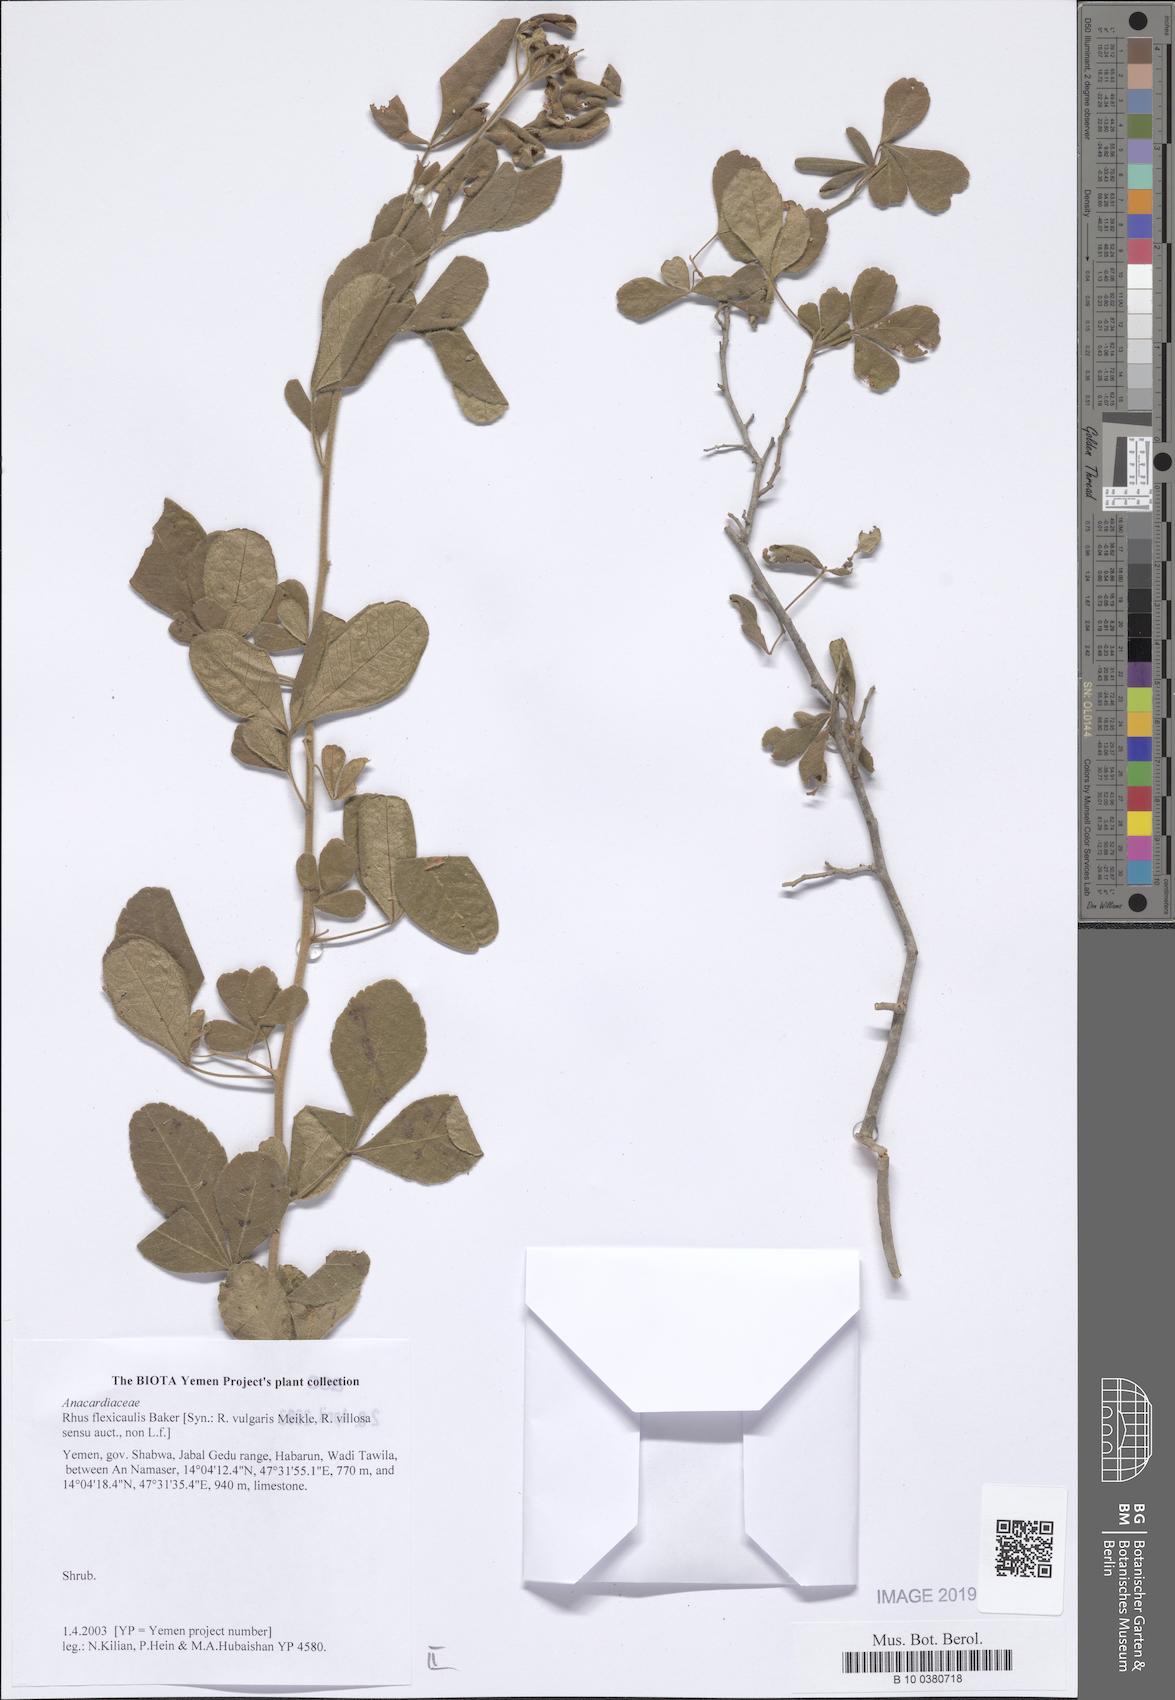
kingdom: Plantae
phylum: Tracheophyta
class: Magnoliopsida
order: Sapindales
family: Anacardiaceae
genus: Searsia
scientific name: Searsia flexicaulis
